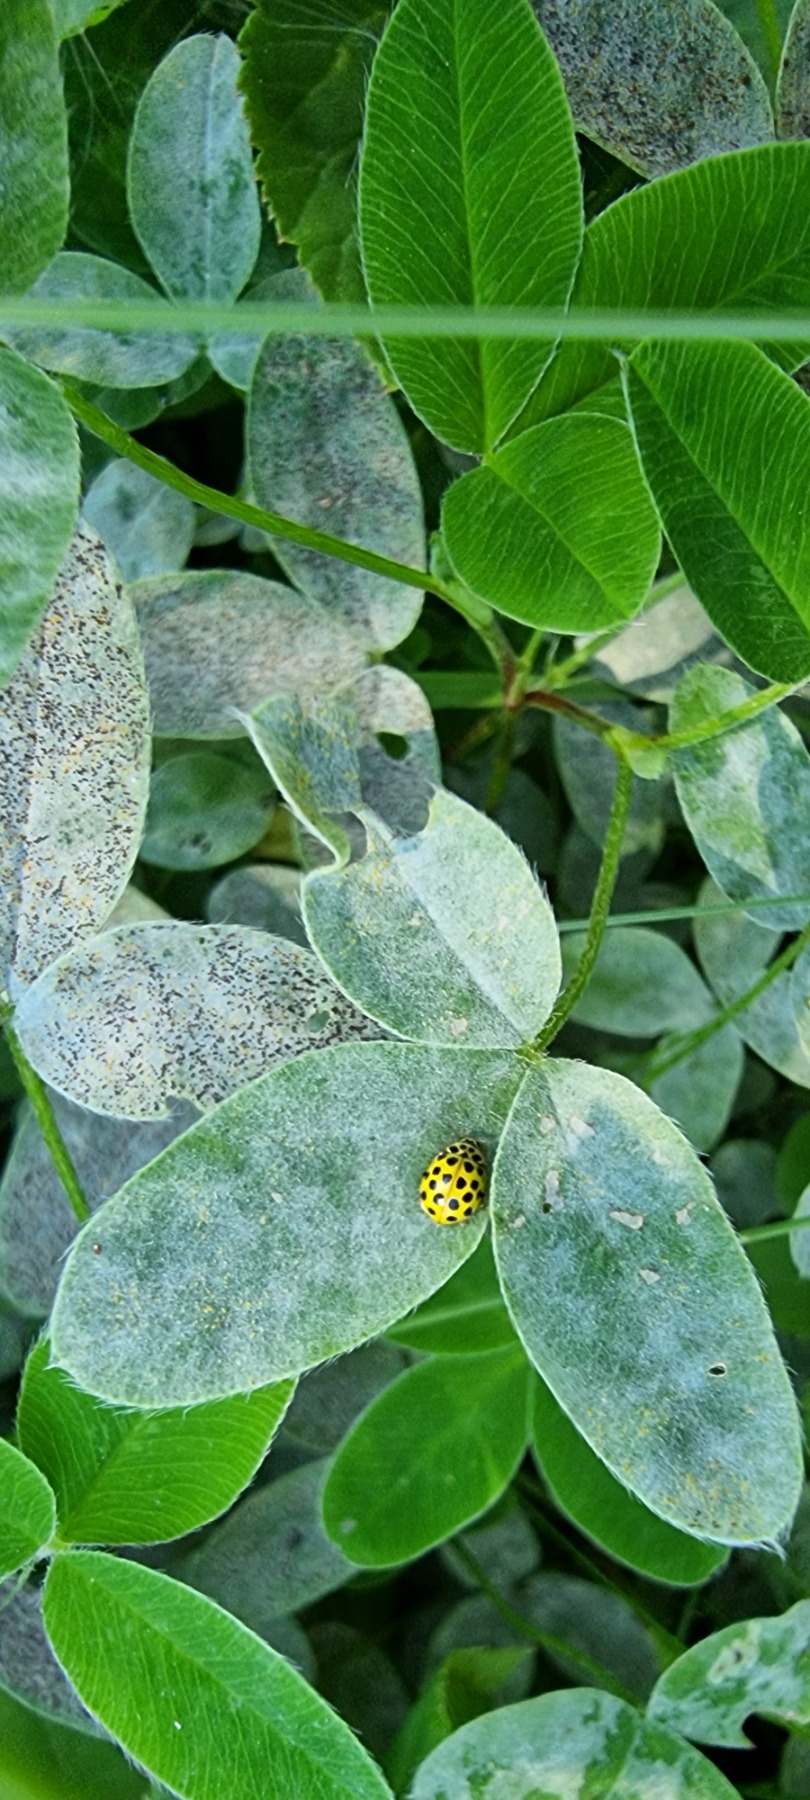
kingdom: Animalia
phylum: Arthropoda
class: Insecta
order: Coleoptera
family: Coccinellidae
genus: Psyllobora
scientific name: Psyllobora vigintiduopunctata
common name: Toogtyveplettet mariehøne
